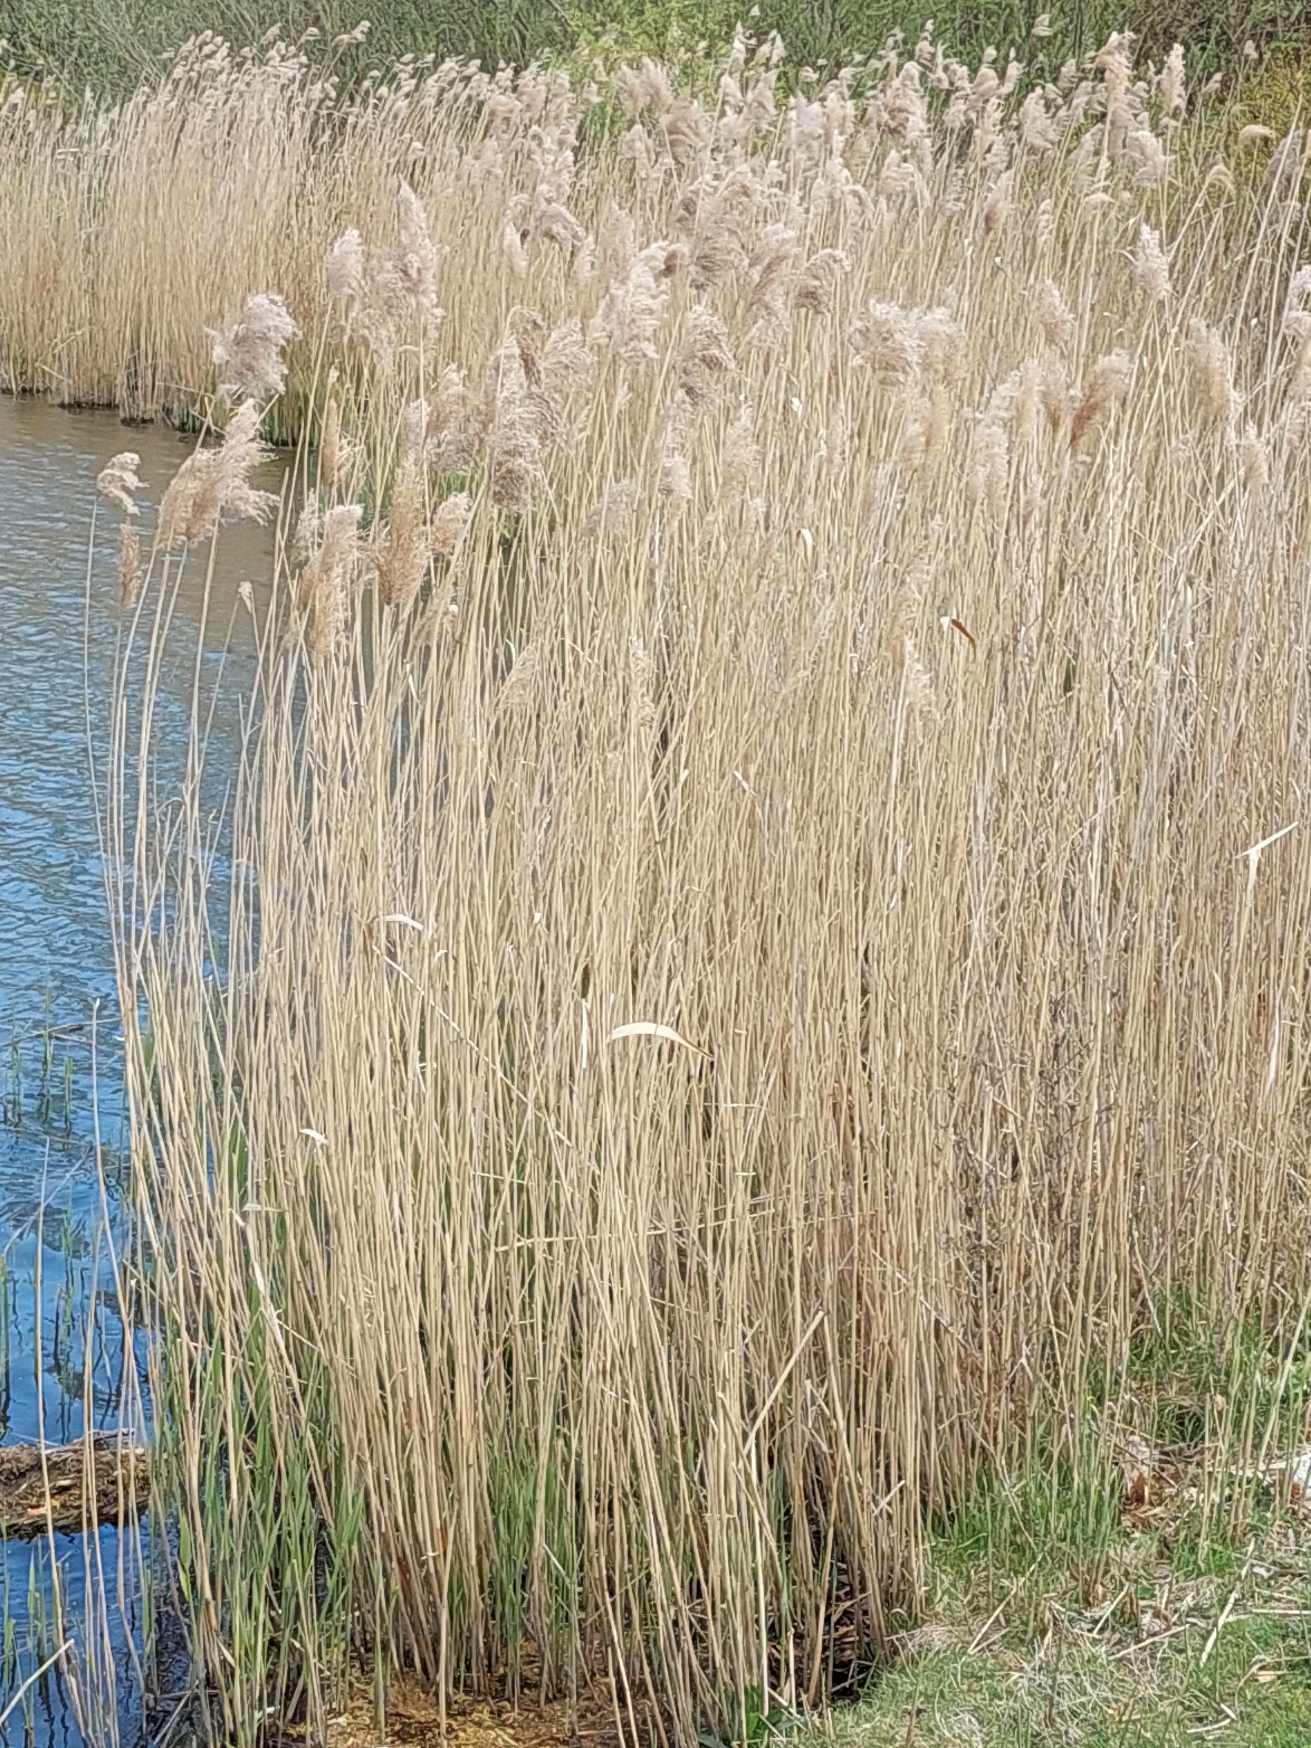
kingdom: Plantae
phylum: Tracheophyta
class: Liliopsida
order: Poales
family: Poaceae
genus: Phragmites
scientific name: Phragmites australis
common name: Tagrør
